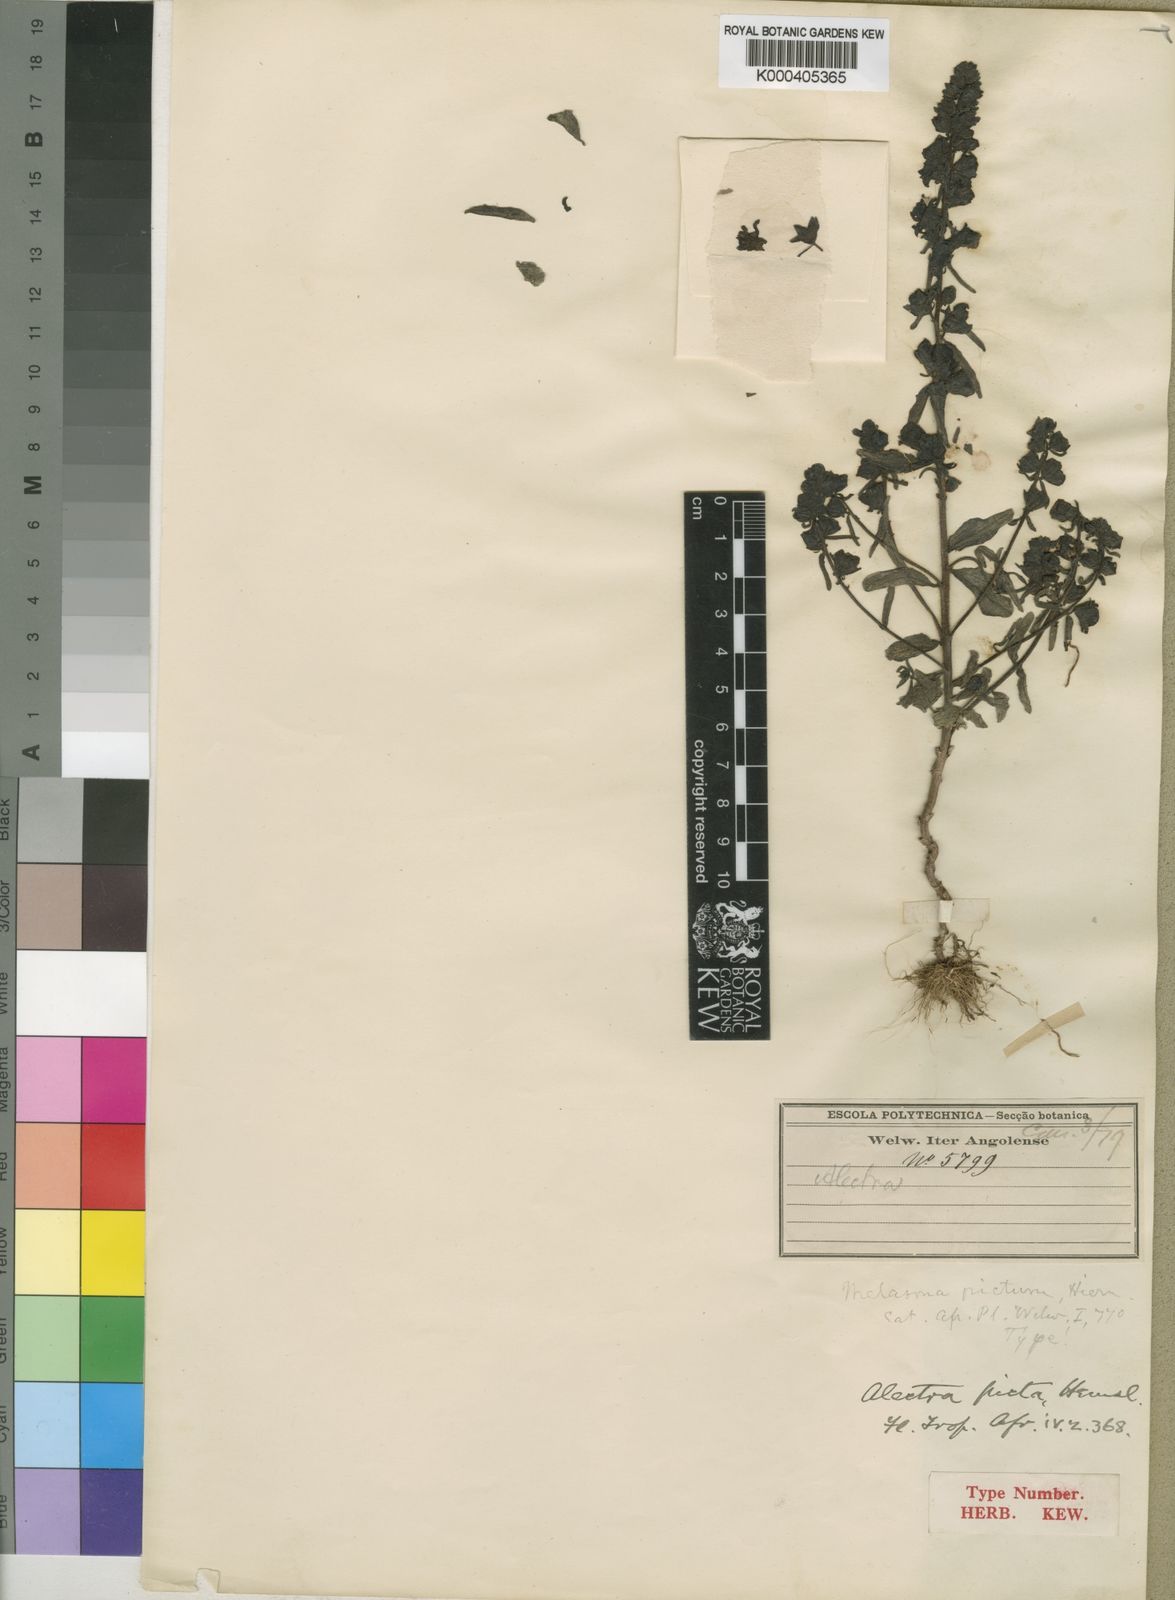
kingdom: Plantae
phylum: Tracheophyta
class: Magnoliopsida
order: Lamiales
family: Orobanchaceae
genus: Alectra
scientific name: Alectra picta
